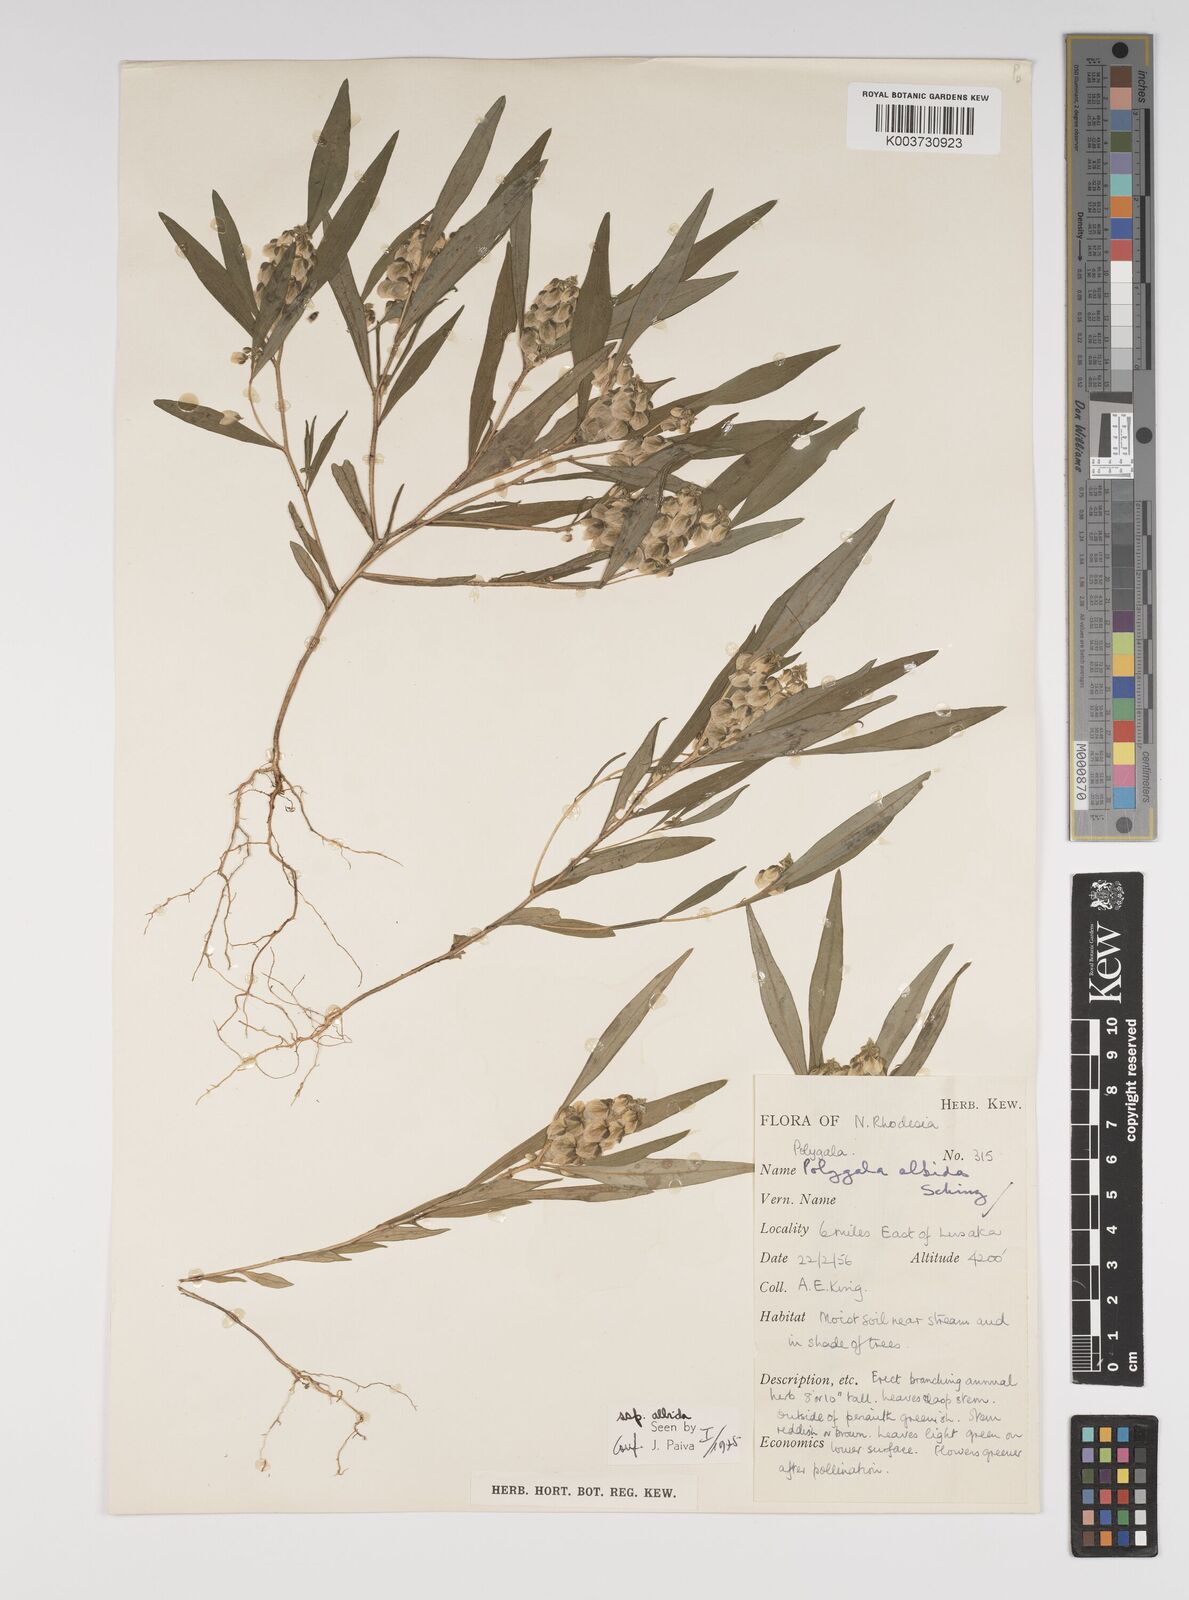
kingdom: Plantae
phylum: Tracheophyta
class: Magnoliopsida
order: Fabales
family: Polygalaceae
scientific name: Polygalaceae
